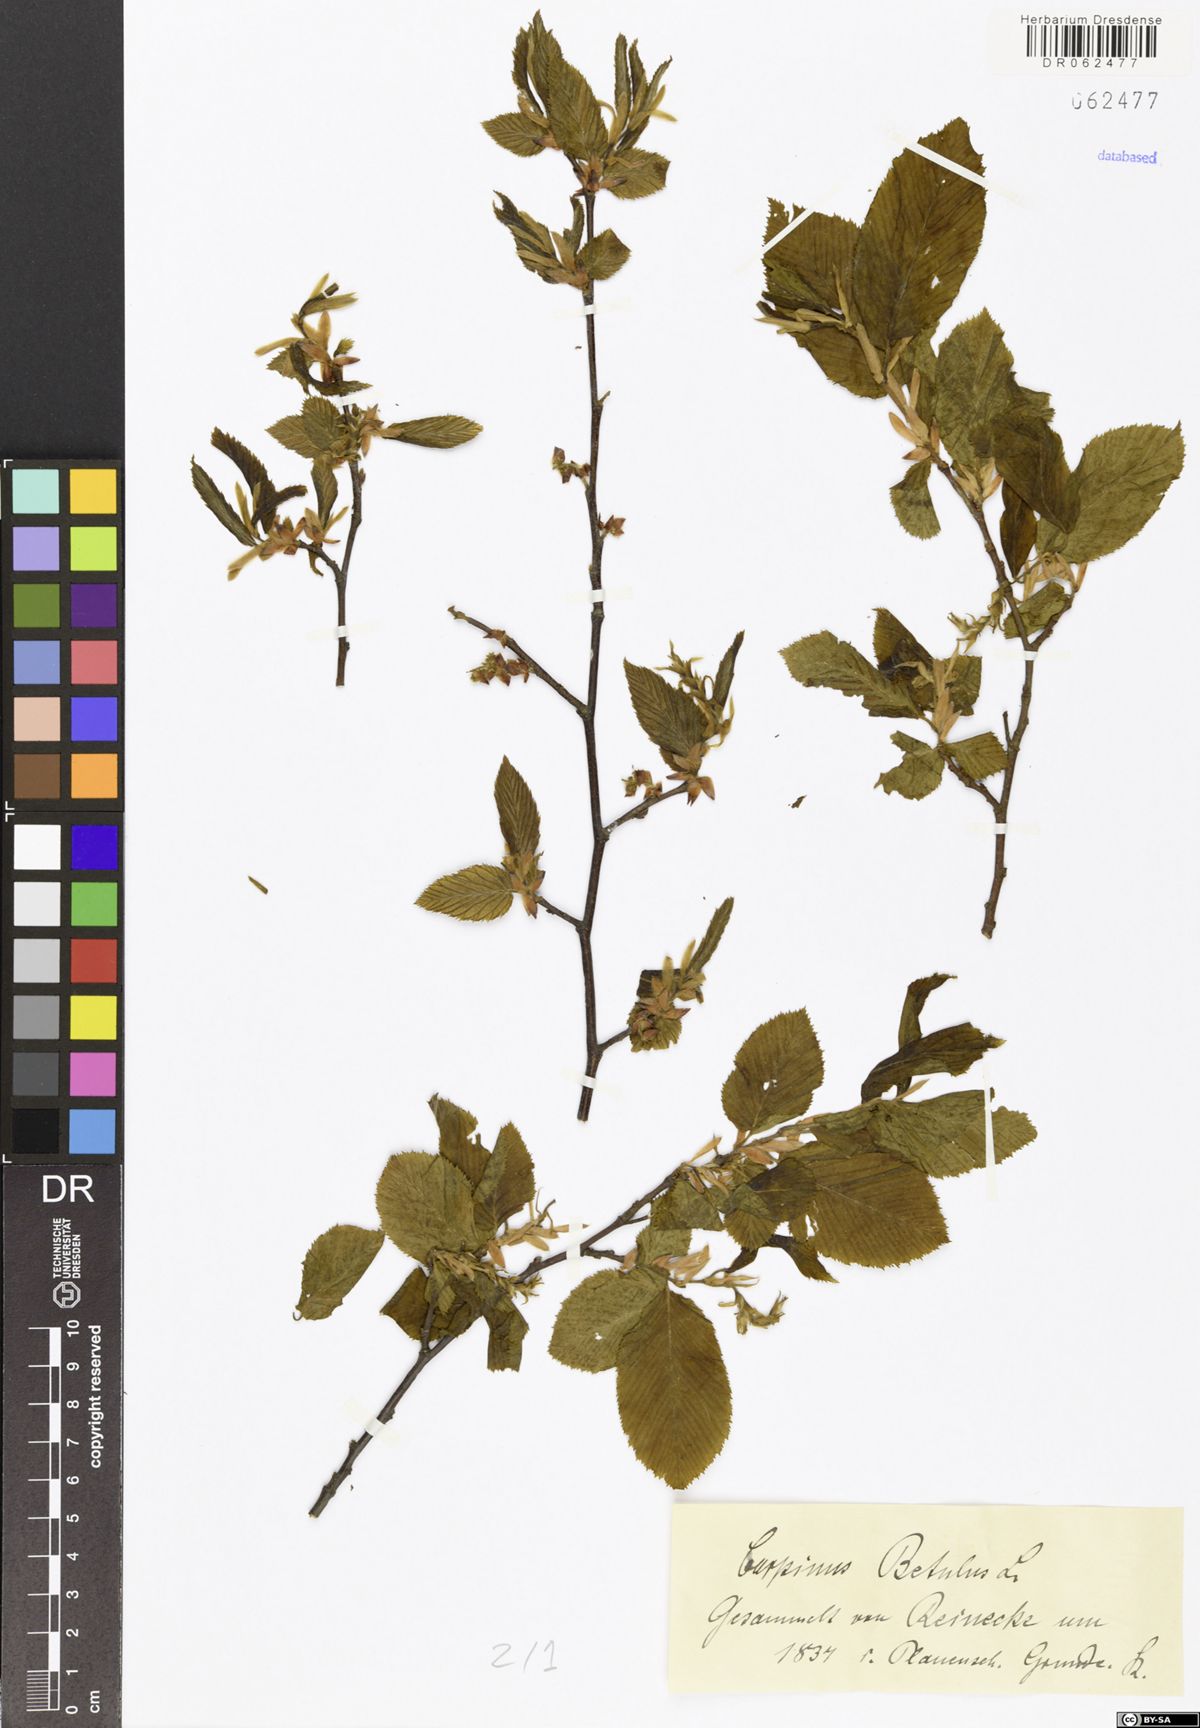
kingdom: Plantae
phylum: Tracheophyta
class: Magnoliopsida
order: Fagales
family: Betulaceae
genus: Carpinus
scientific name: Carpinus betulus
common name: Hornbeam
